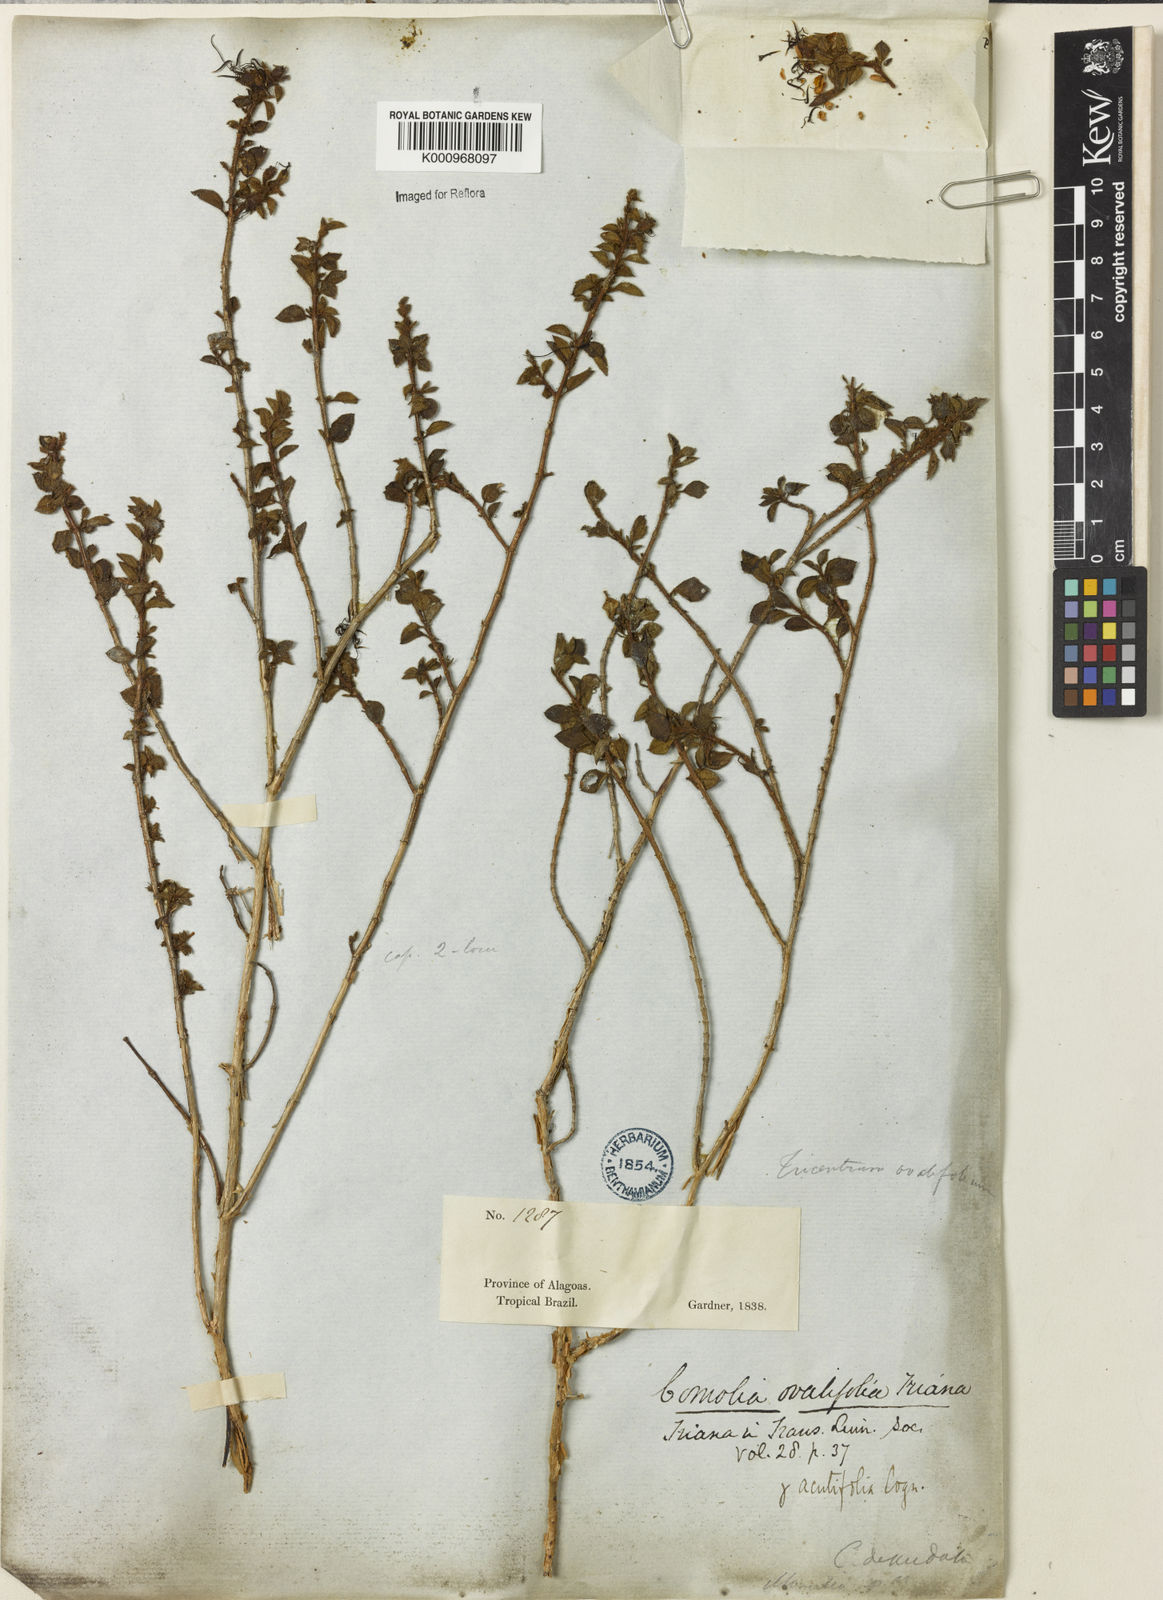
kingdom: Plantae
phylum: Tracheophyta
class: Magnoliopsida
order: Myrtales
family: Melastomataceae
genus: Comolia
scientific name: Comolia ovalifolia
